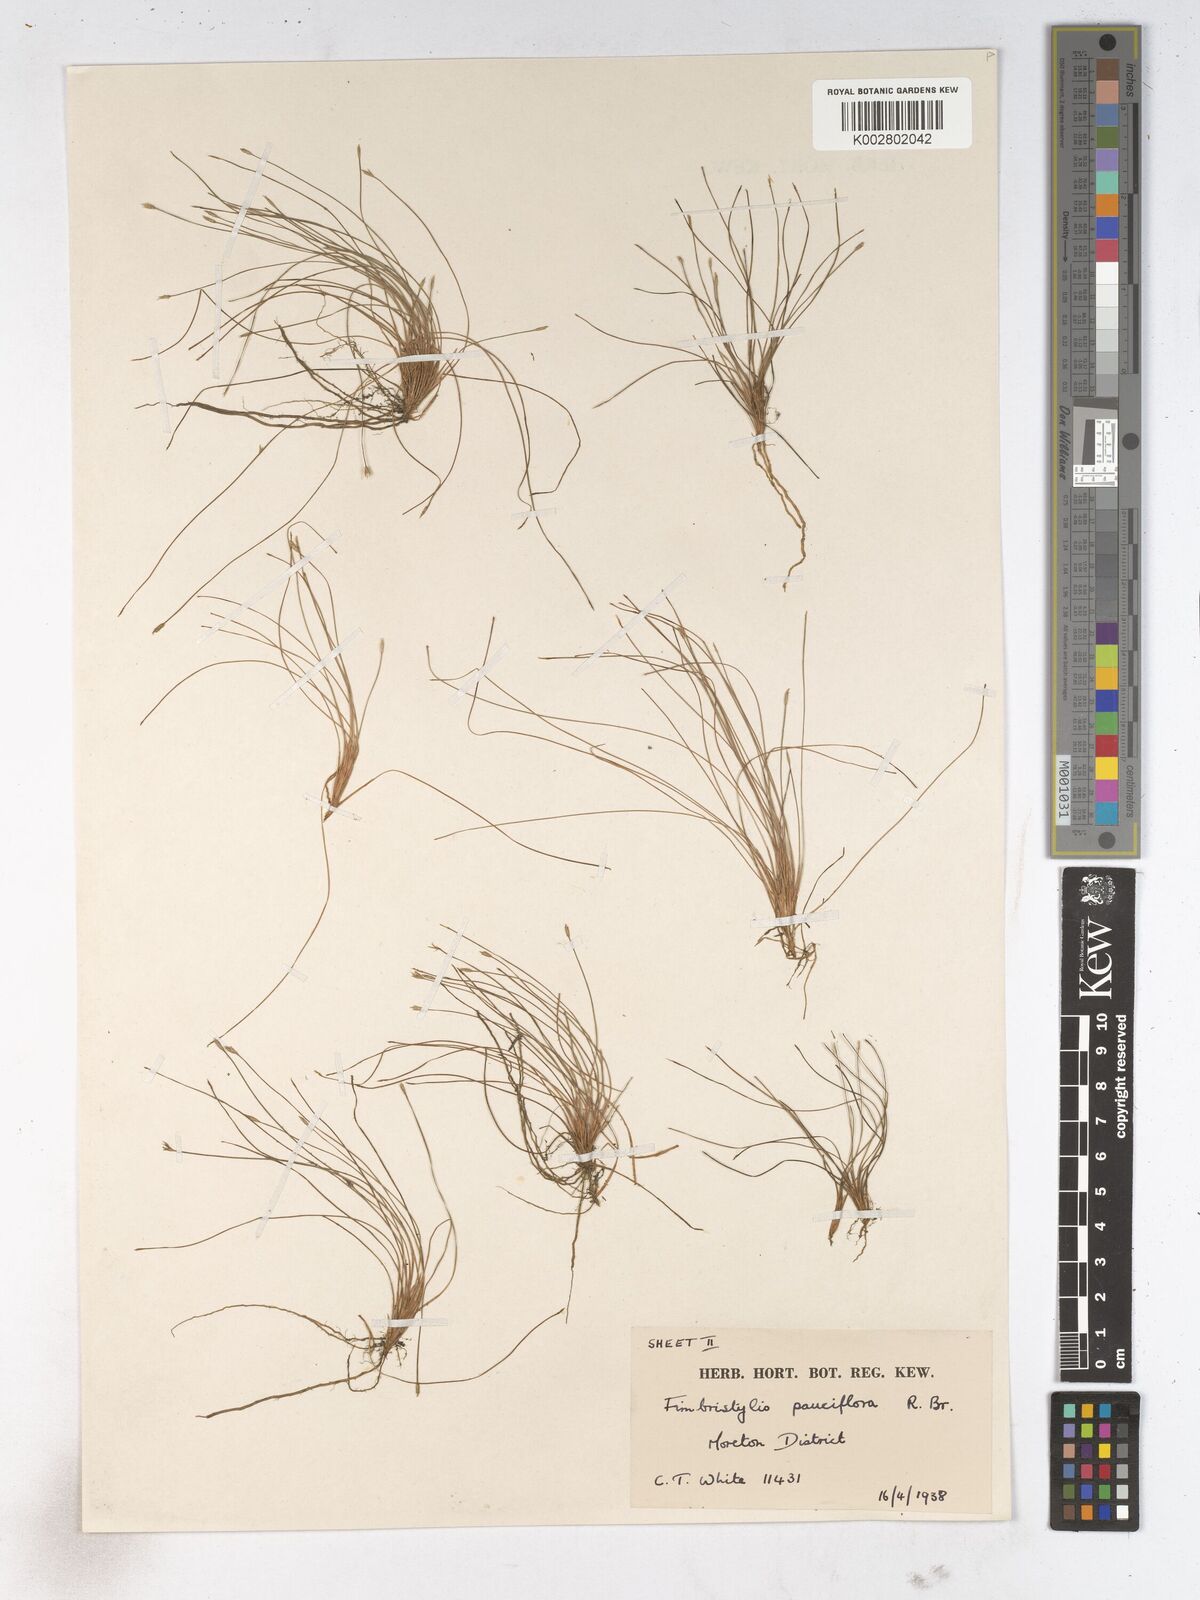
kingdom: Plantae
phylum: Tracheophyta
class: Liliopsida
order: Poales
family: Cyperaceae
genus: Fimbristylis
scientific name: Fimbristylis pauciflora
